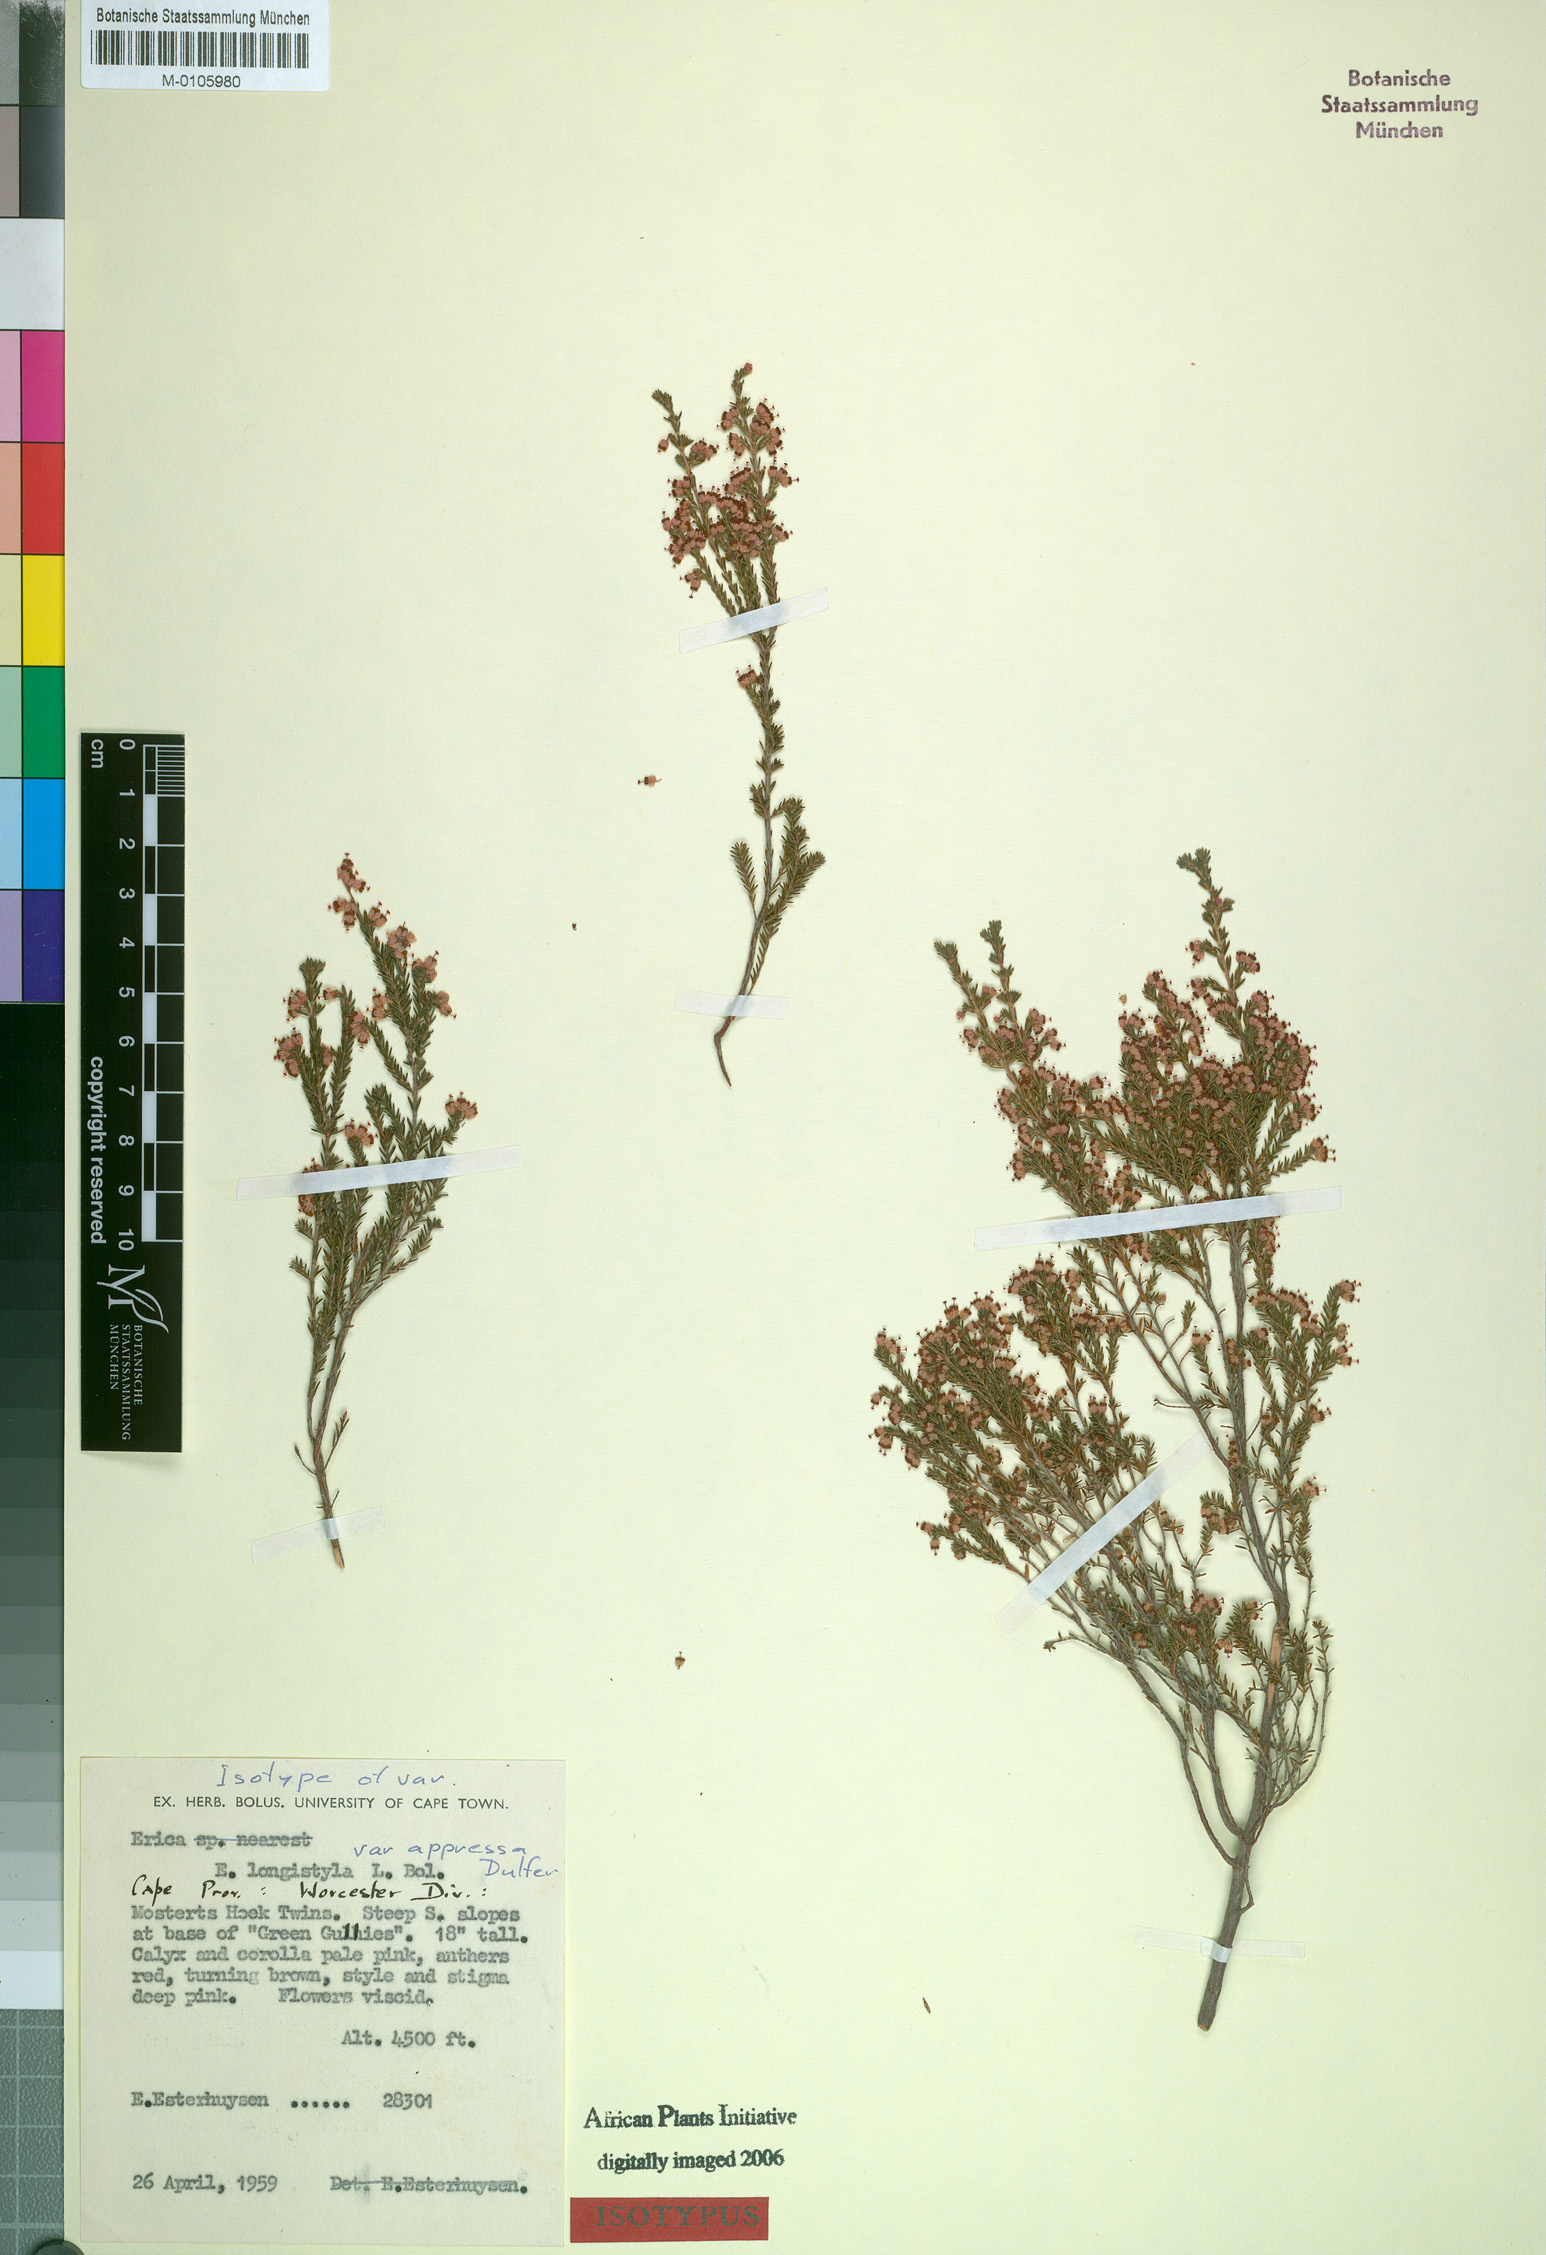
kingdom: Plantae
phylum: Tracheophyta
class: Magnoliopsida
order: Ericales
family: Ericaceae
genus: Erica
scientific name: Erica longistyla
